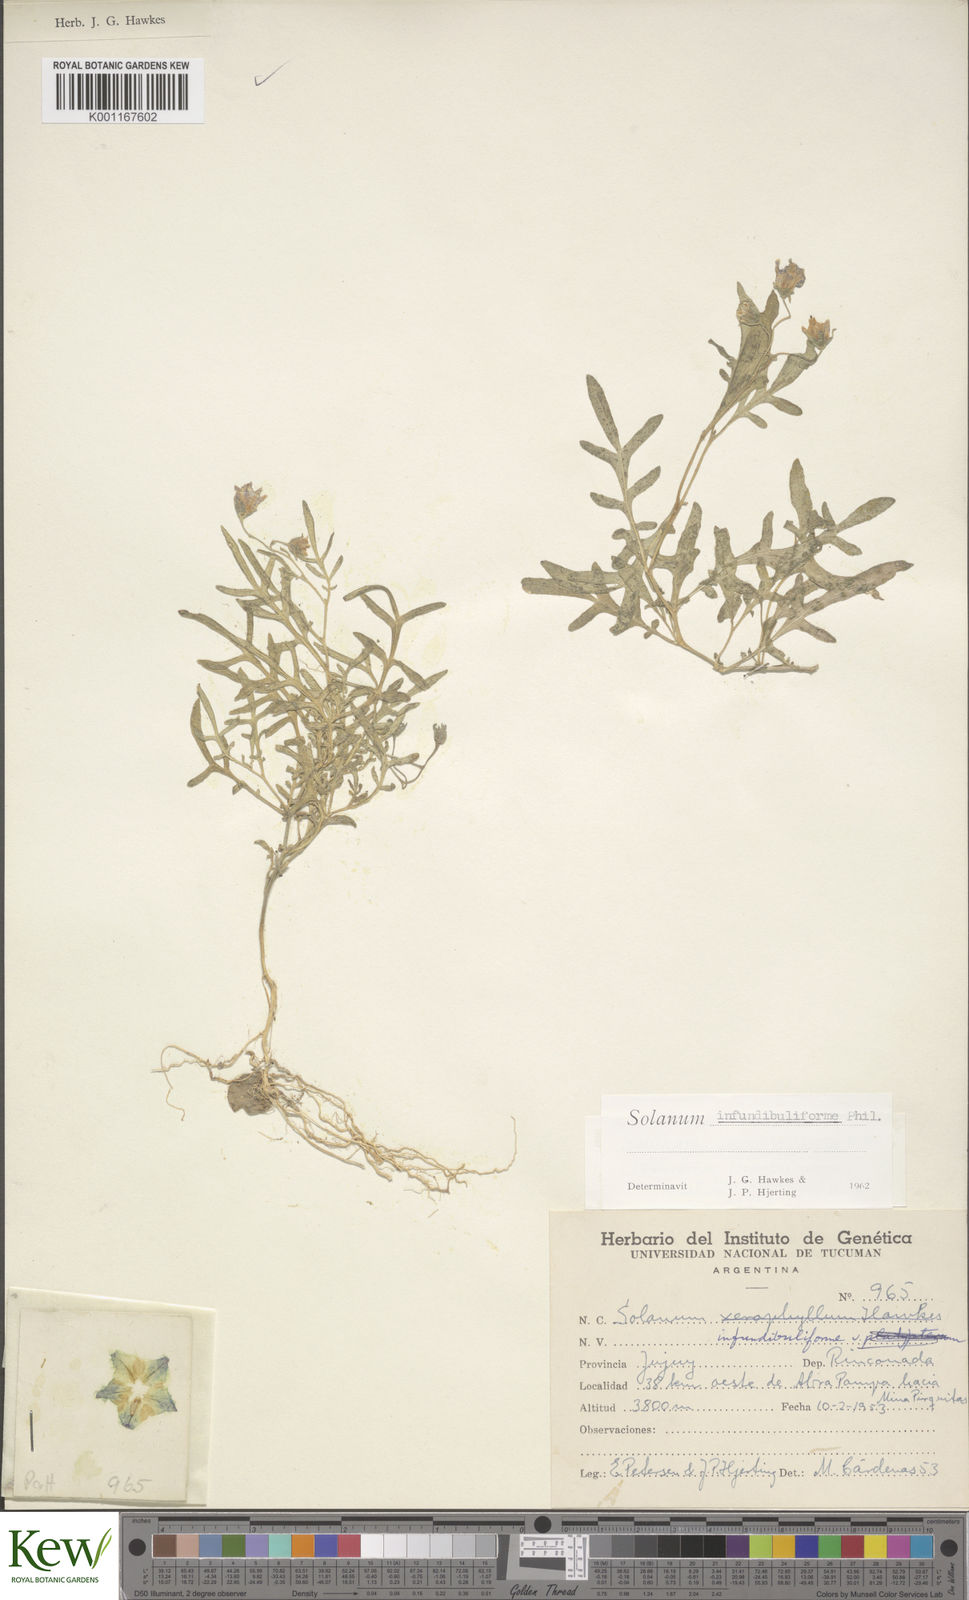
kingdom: Plantae
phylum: Tracheophyta
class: Magnoliopsida
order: Solanales
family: Solanaceae
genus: Solanum
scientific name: Solanum infundibuliforme
